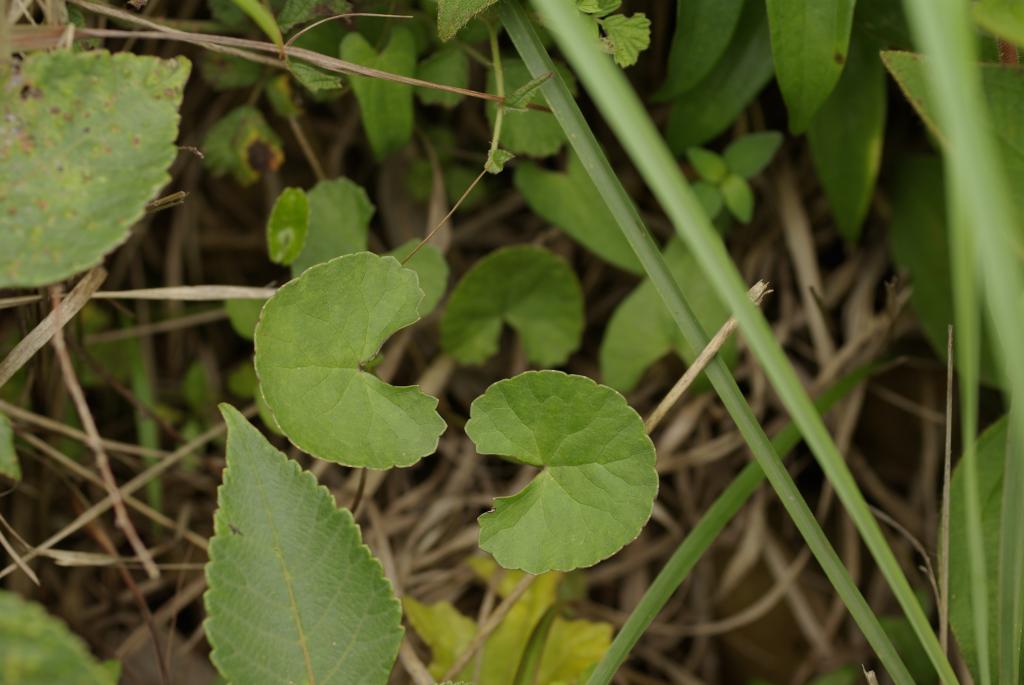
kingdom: Plantae
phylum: Tracheophyta
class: Magnoliopsida
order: Apiales
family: Apiaceae
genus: Centella
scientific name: Centella asiatica
